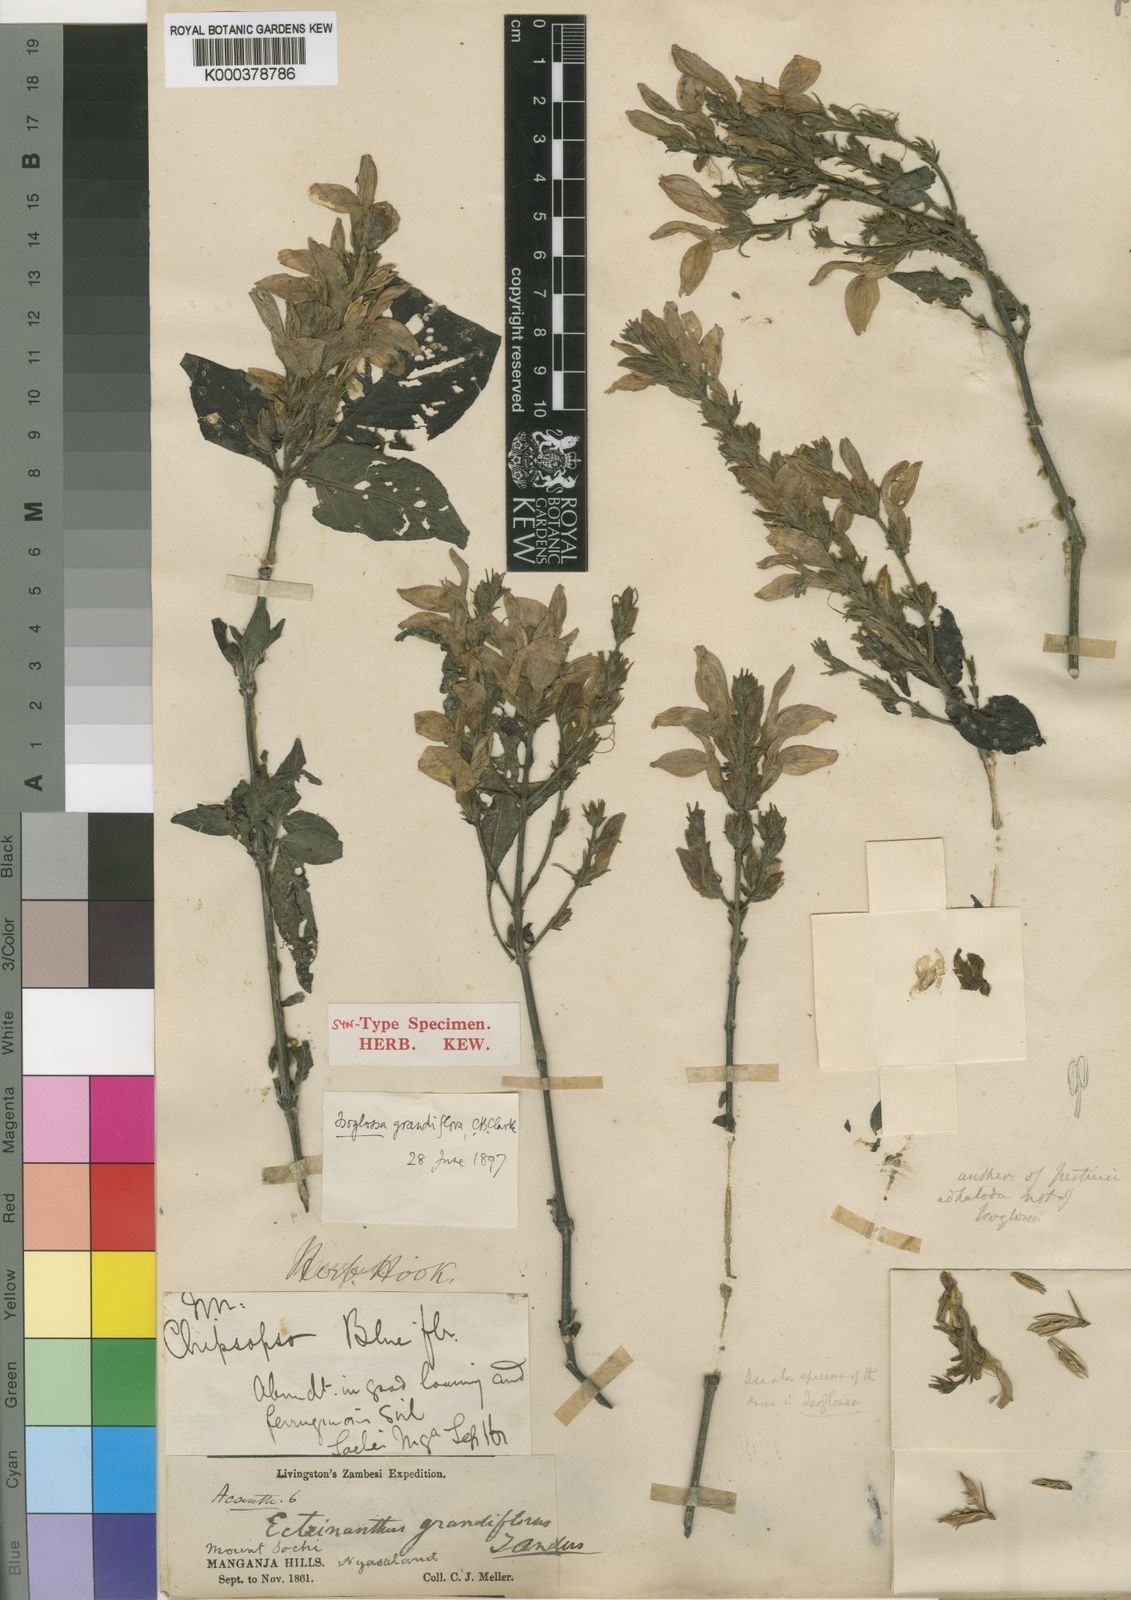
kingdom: Plantae
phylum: Tracheophyta
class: Magnoliopsida
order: Lamiales
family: Acanthaceae
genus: Isoglossa
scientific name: Isoglossa
